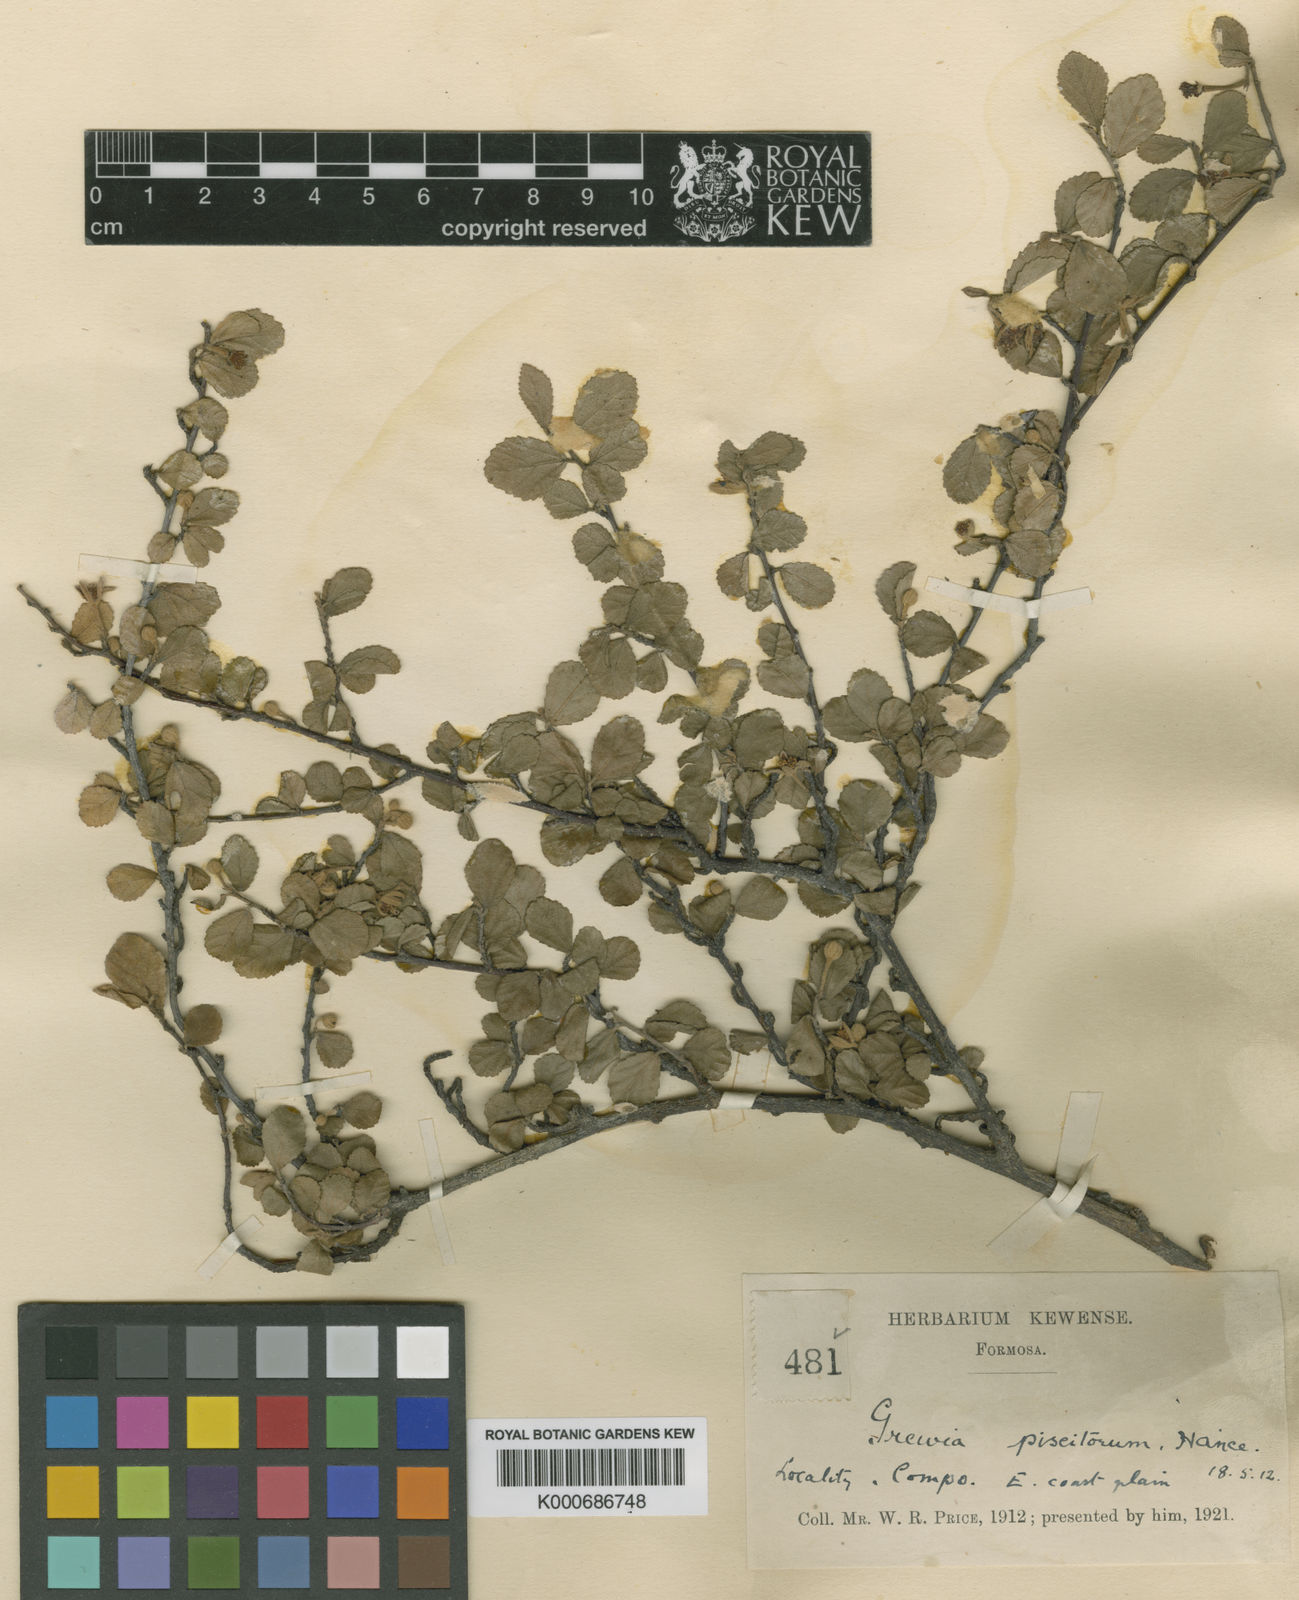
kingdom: Plantae
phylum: Tracheophyta
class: Magnoliopsida
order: Malvales
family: Malvaceae
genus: Grewia
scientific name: Grewia piscatorum
